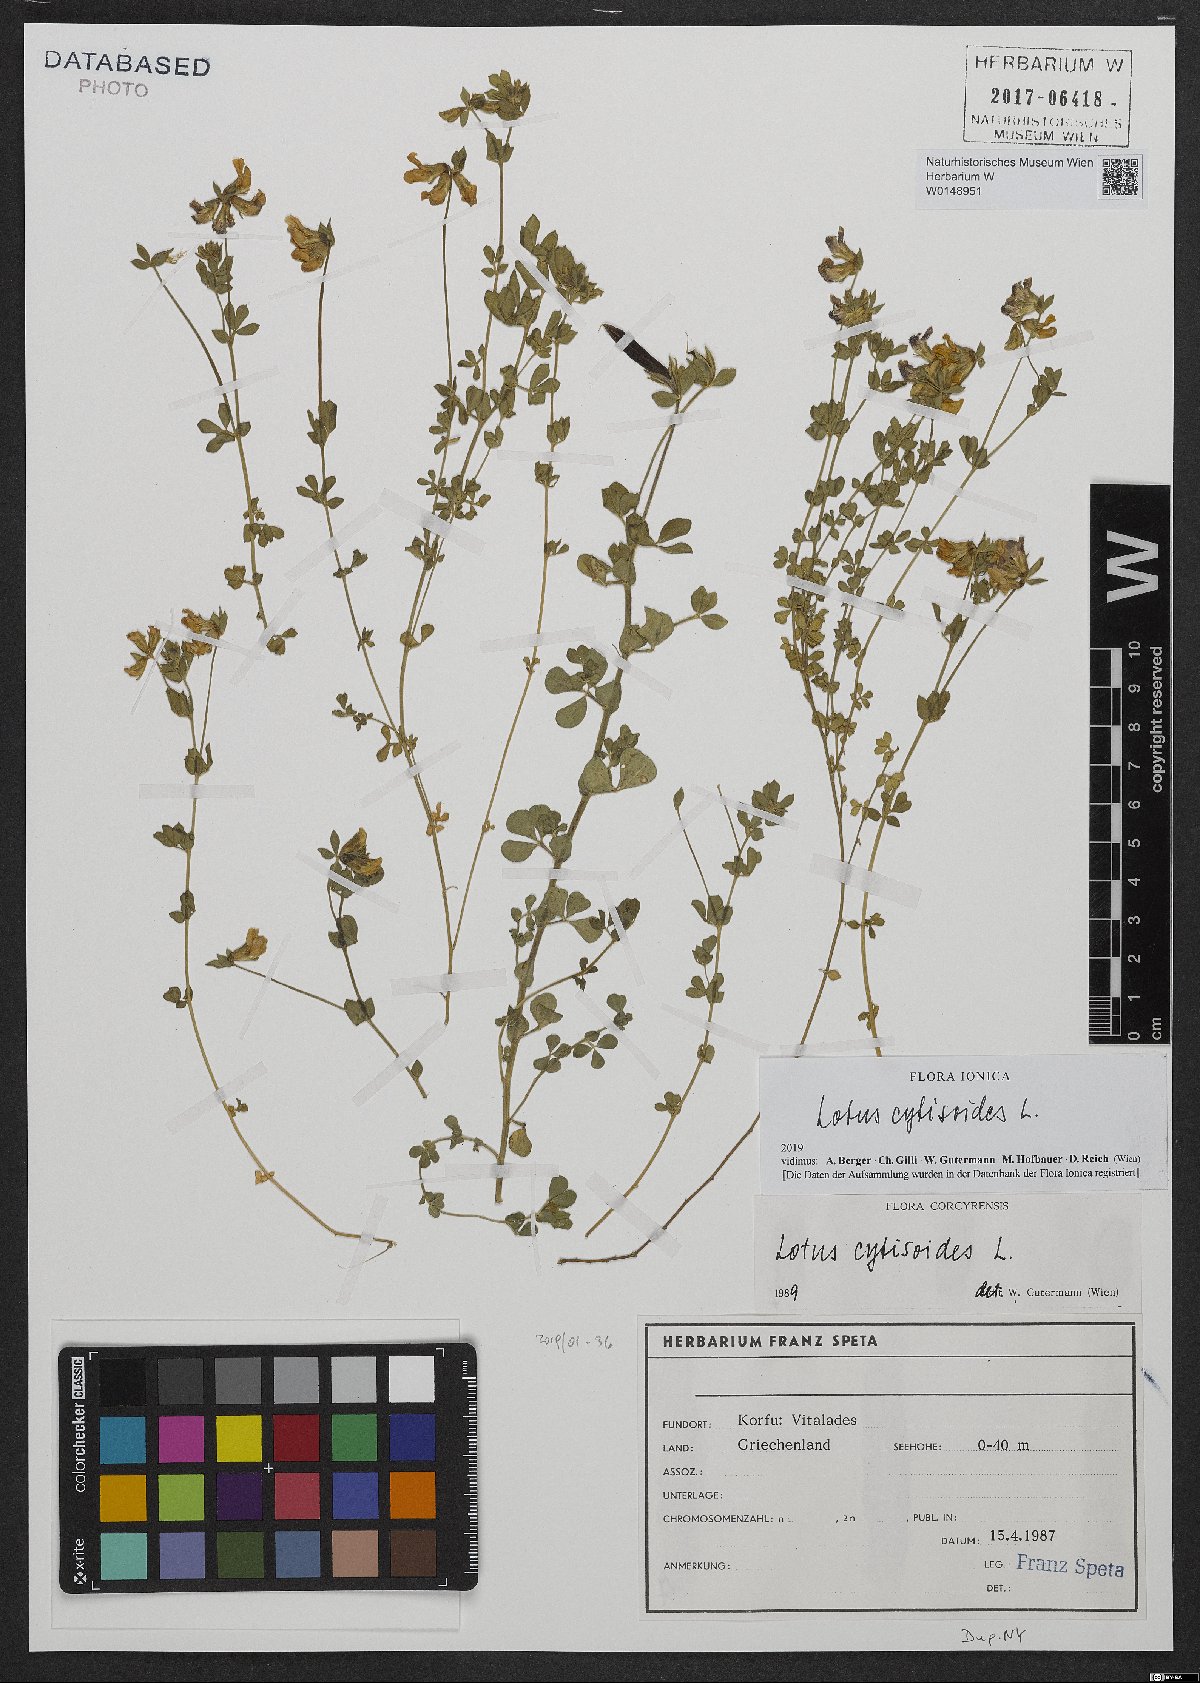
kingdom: Plantae
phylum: Tracheophyta
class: Magnoliopsida
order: Fabales
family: Fabaceae
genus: Lotus
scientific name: Lotus cytisoides
